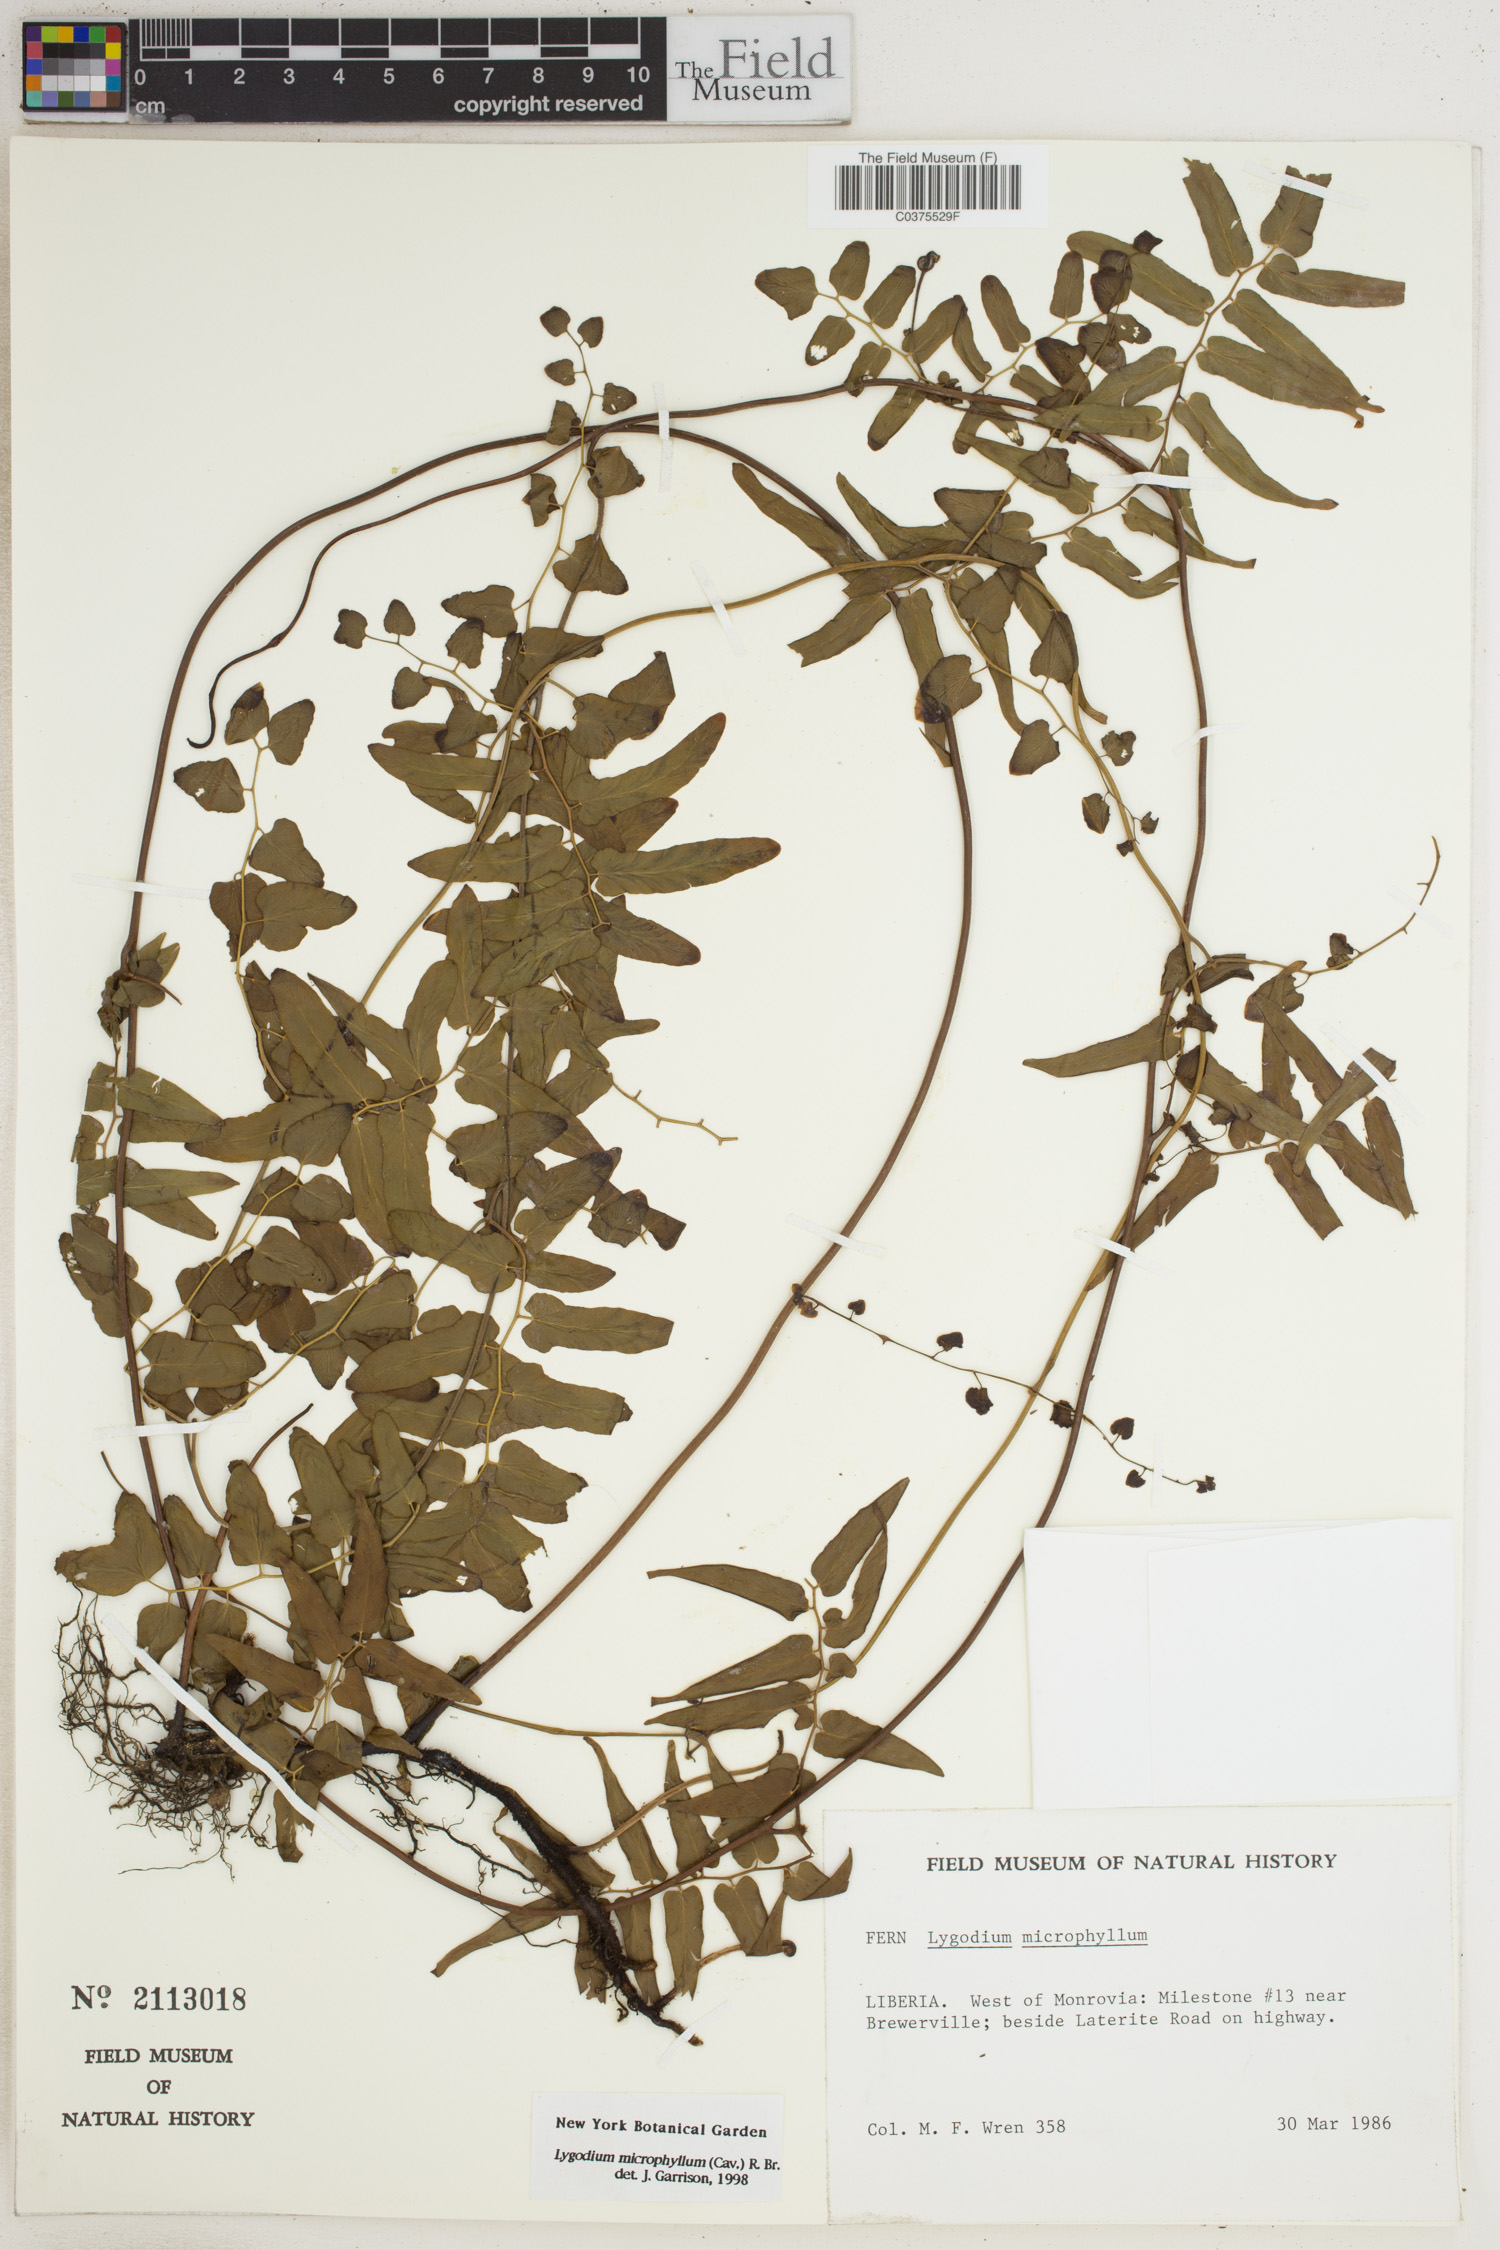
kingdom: Plantae
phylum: Tracheophyta
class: Polypodiopsida
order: Schizaeales
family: Lygodiaceae
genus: Lygodium
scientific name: Lygodium microphyllum
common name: Small-leaf climbing fern
